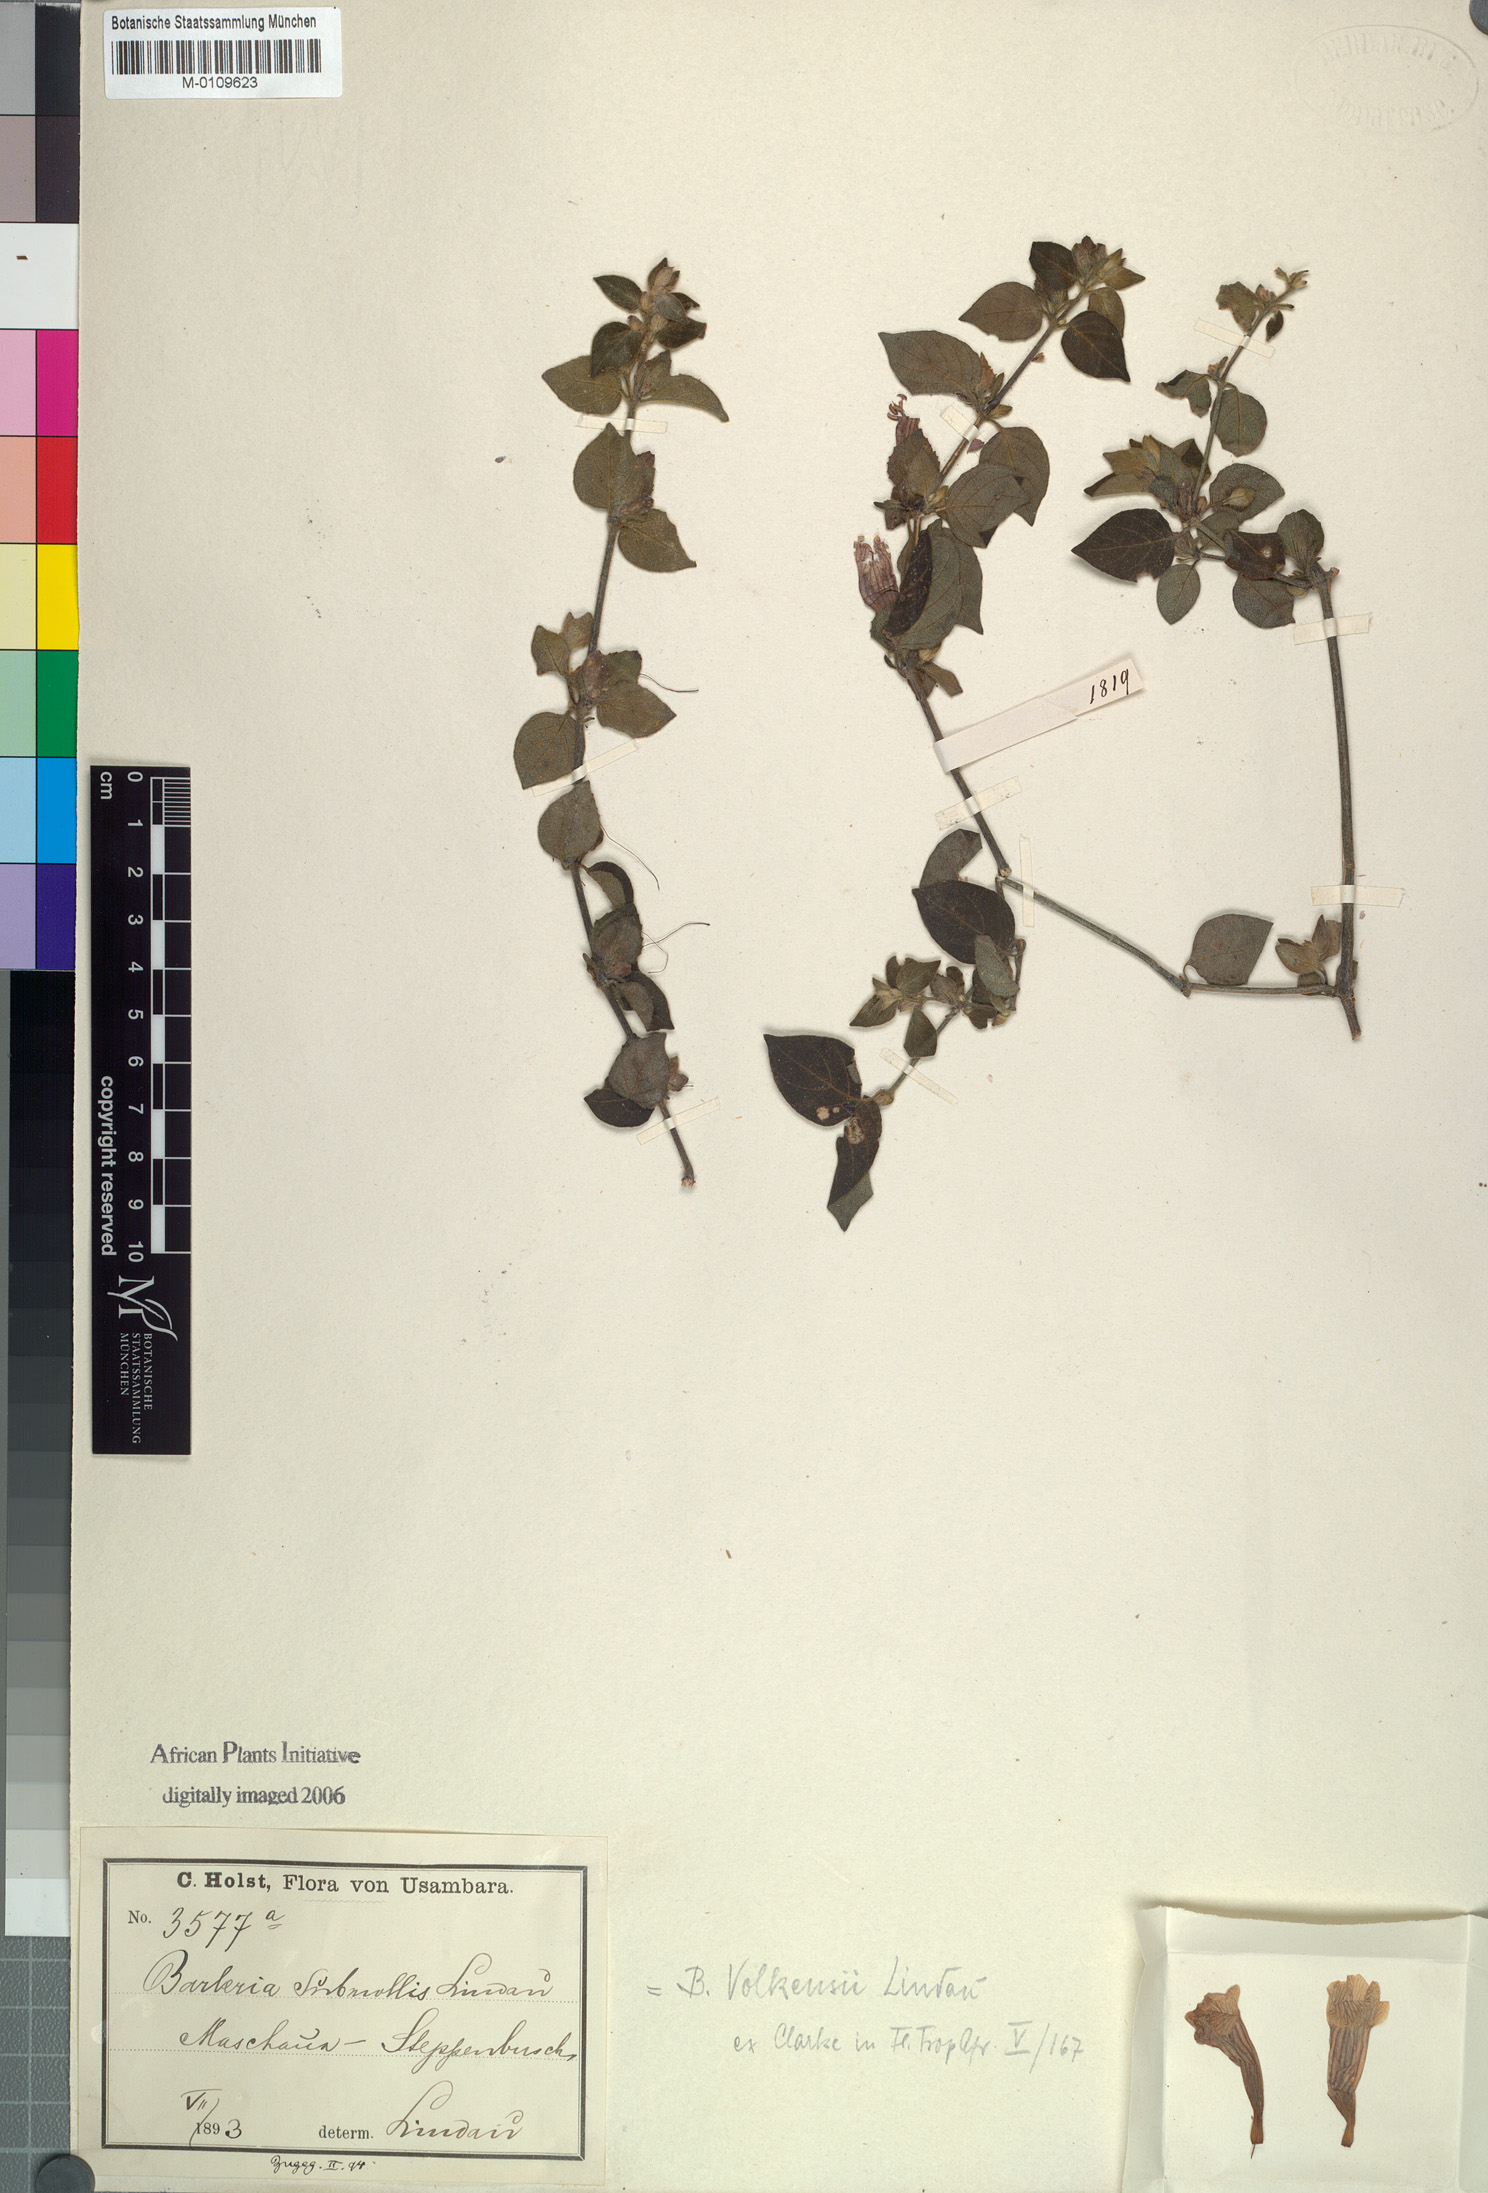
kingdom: Plantae
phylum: Tracheophyta
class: Magnoliopsida
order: Lamiales
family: Acanthaceae
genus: Barleria
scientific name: Barleria volkensii
